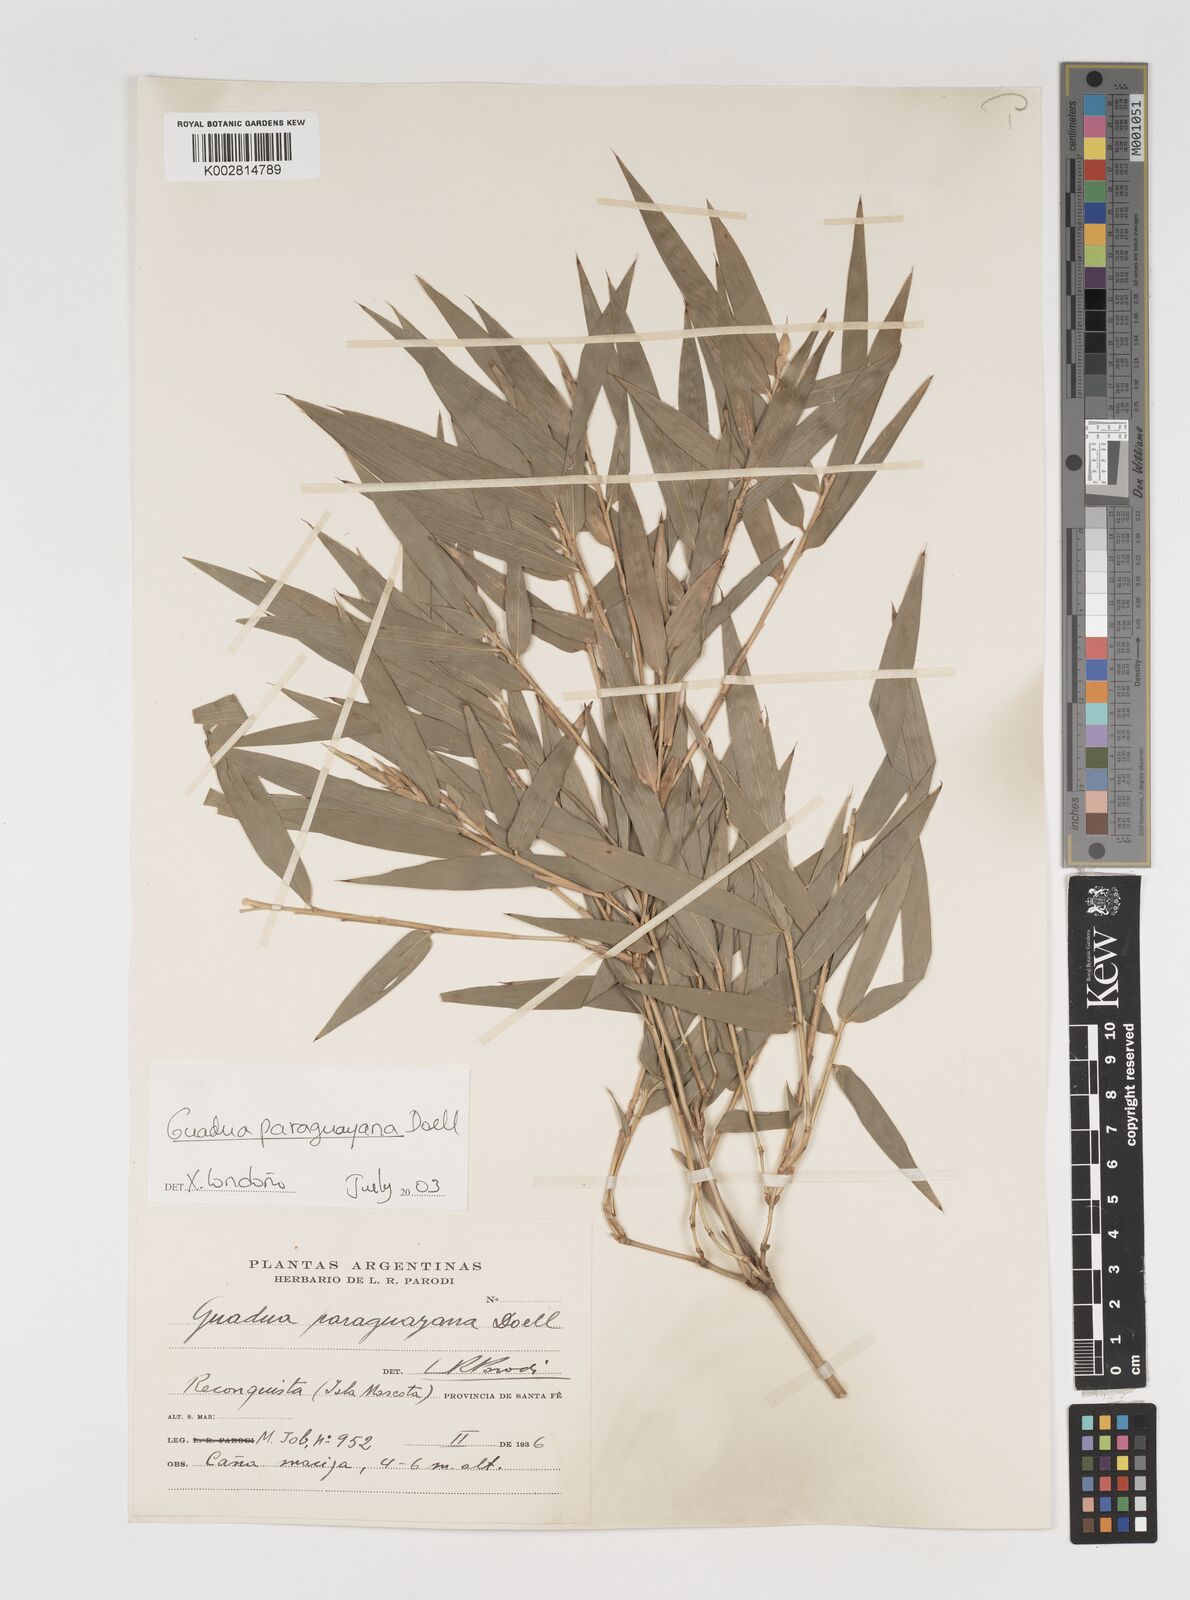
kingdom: Plantae
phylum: Tracheophyta
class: Liliopsida
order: Poales
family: Poaceae
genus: Guadua
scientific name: Guadua paraguayana
